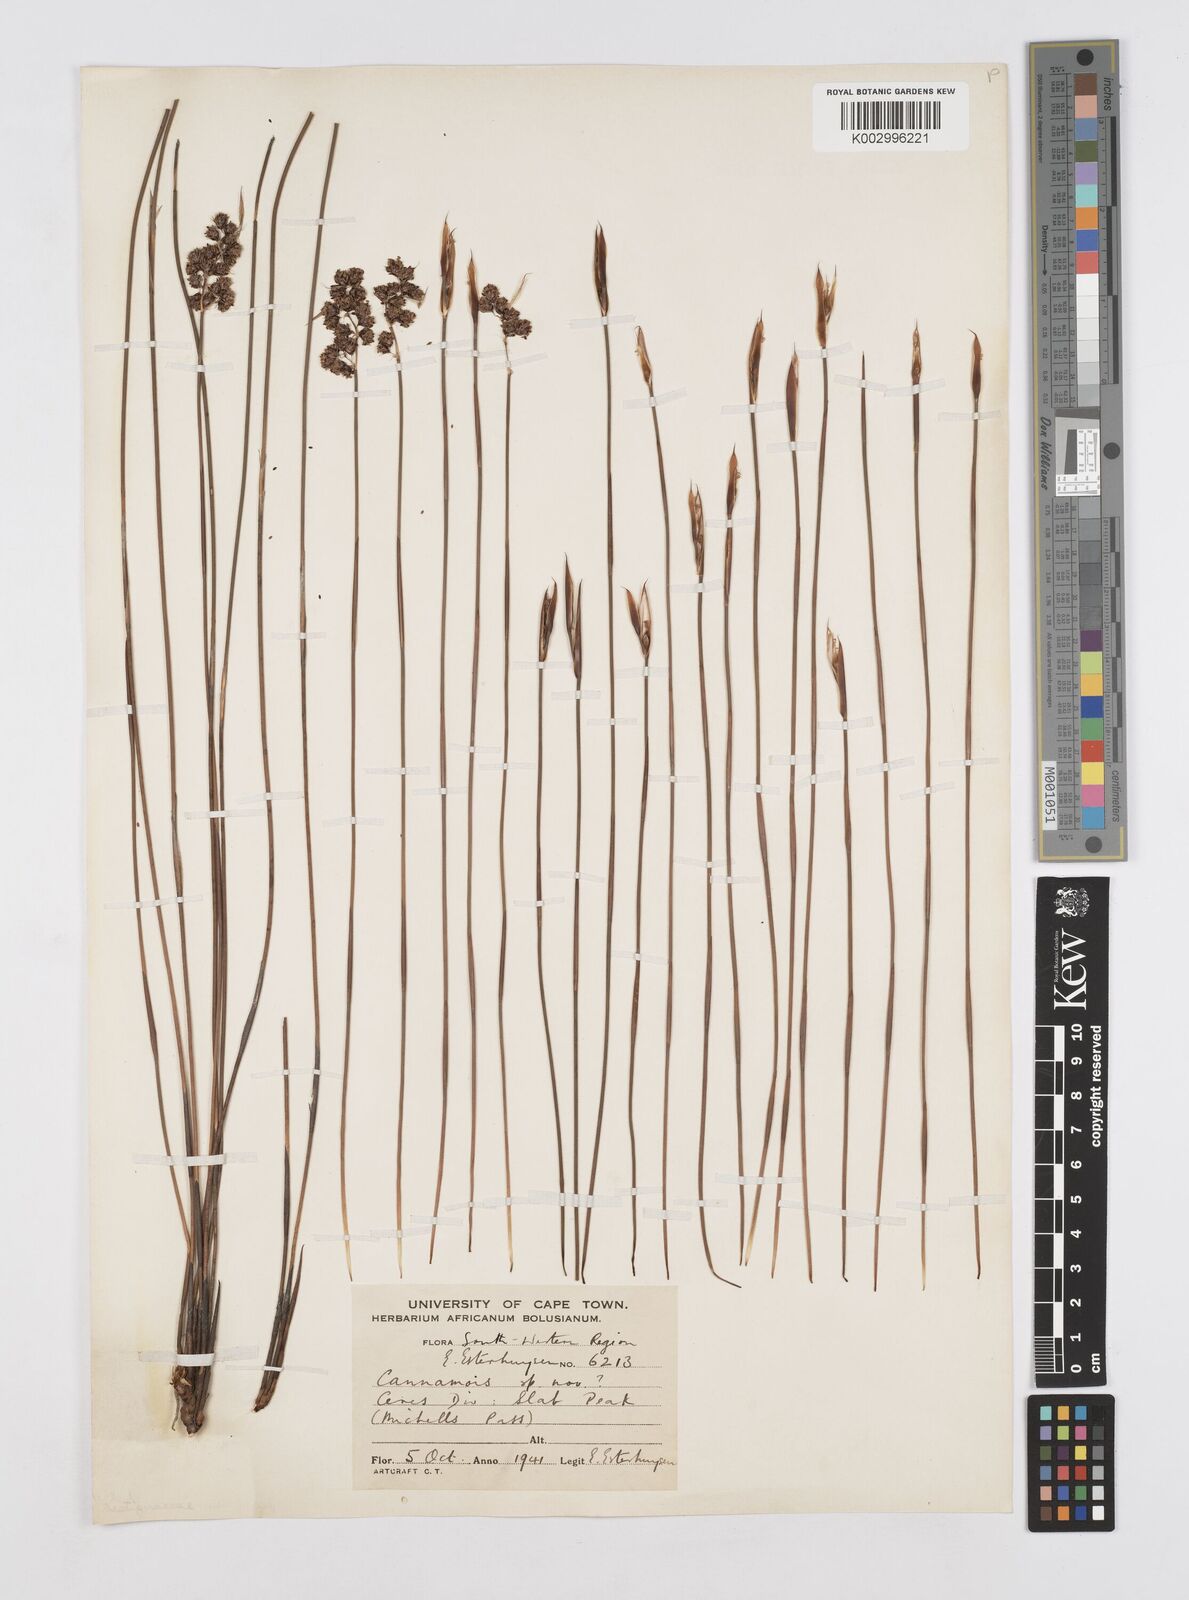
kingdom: Plantae
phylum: Tracheophyta
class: Liliopsida
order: Poales
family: Restionaceae
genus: Cannomois
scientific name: Cannomois
